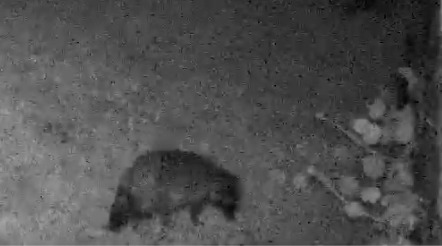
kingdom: Animalia
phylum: Chordata
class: Mammalia
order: Carnivora
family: Canidae
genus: Nyctereutes
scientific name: Nyctereutes procyonoides
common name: Mårhund
